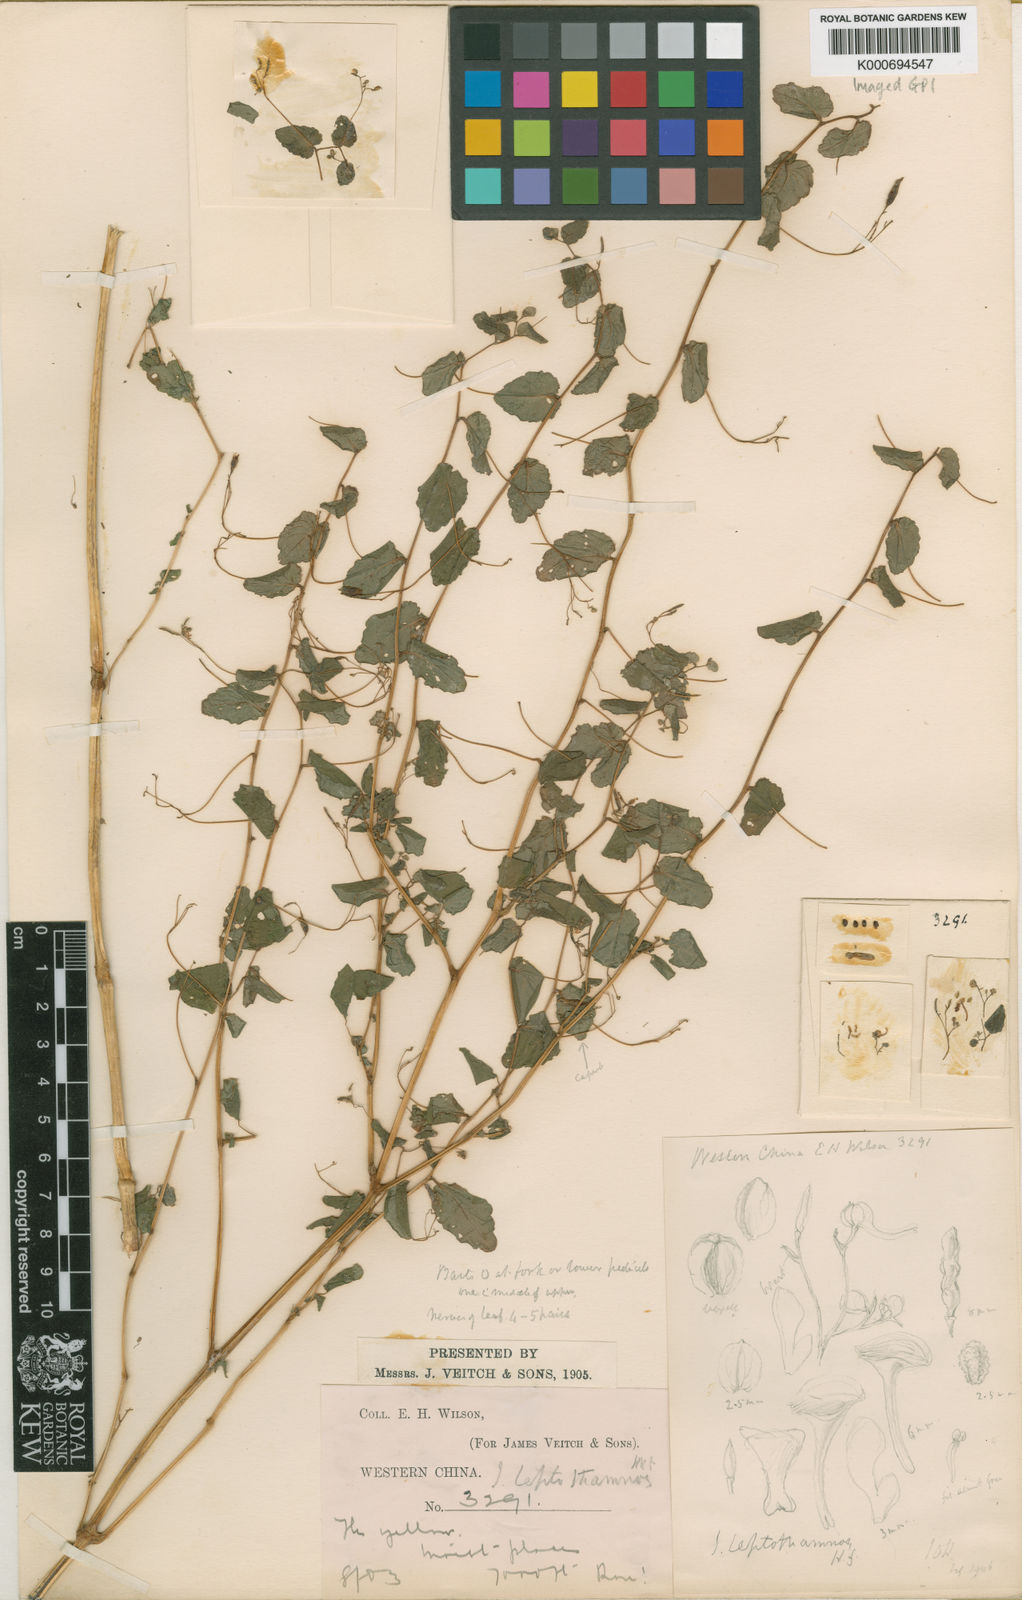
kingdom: Plantae
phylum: Tracheophyta
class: Magnoliopsida
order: Ericales
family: Balsaminaceae
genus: Impatiens
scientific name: Impatiens
